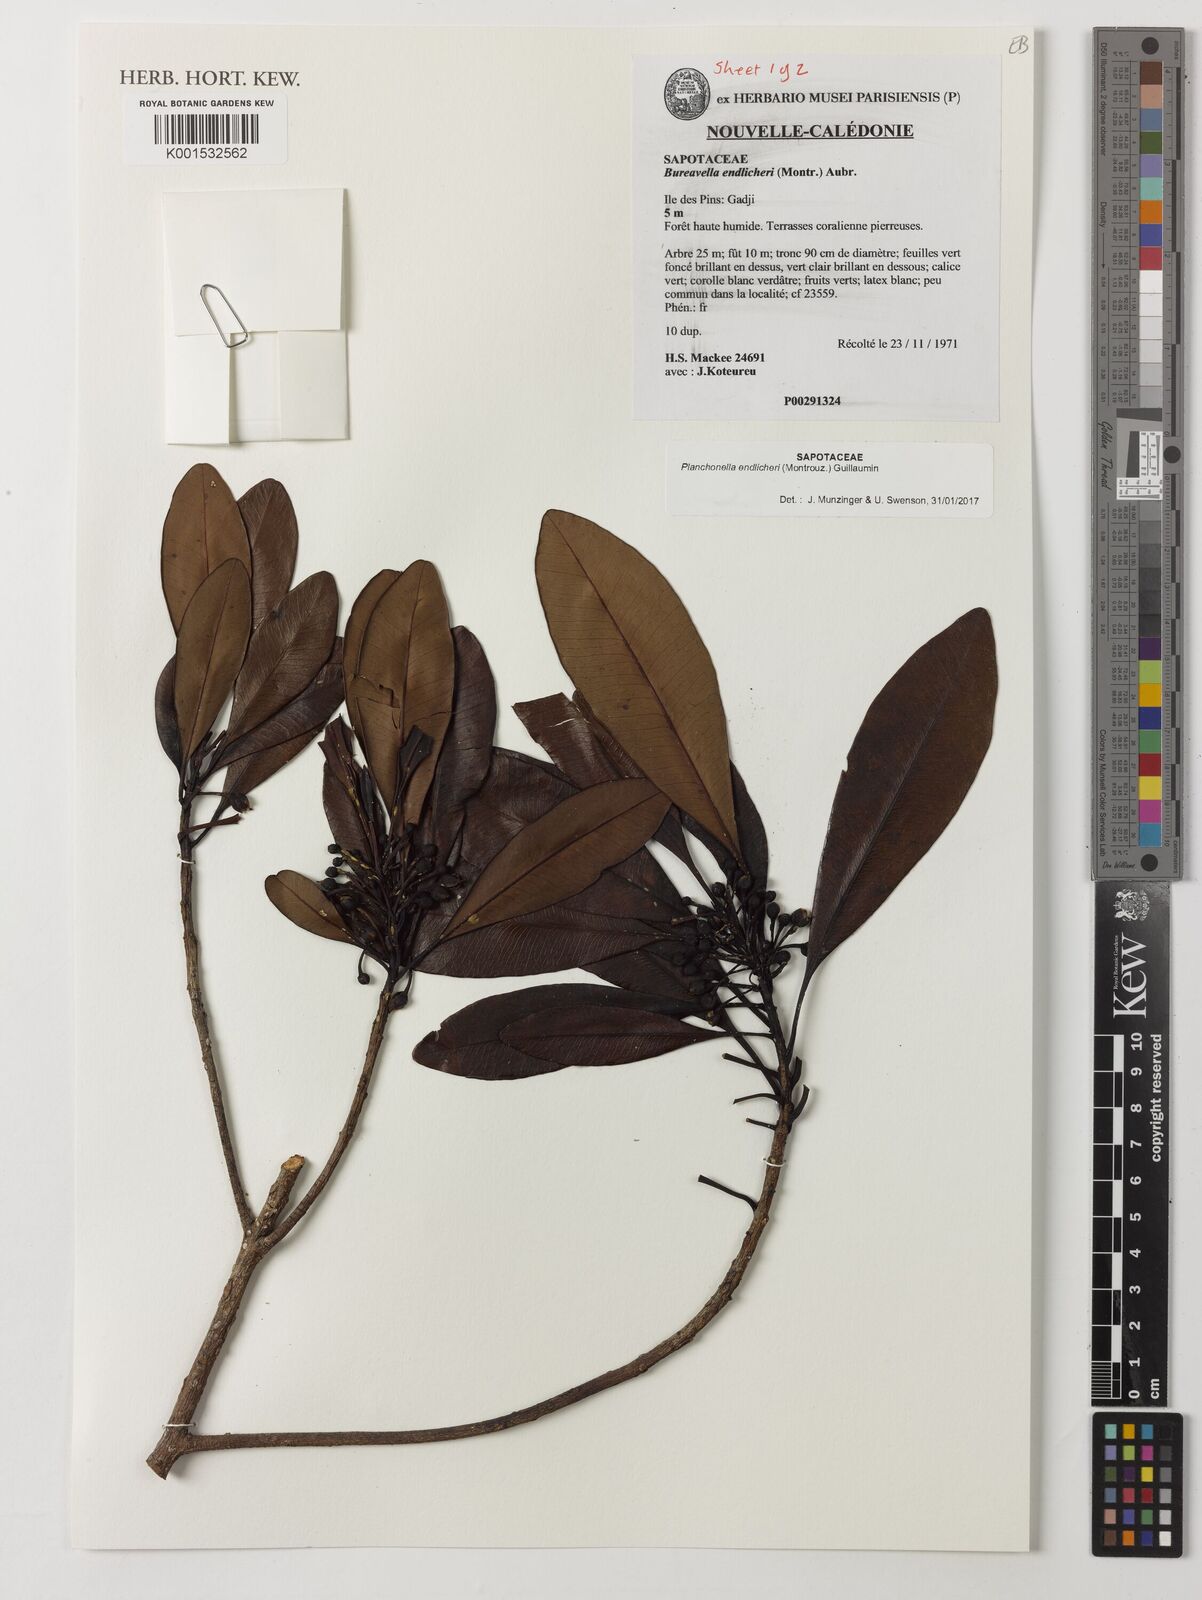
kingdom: Plantae
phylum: Tracheophyta
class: Magnoliopsida
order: Ericales
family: Sapotaceae
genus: Planchonella
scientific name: Planchonella endlicheri
